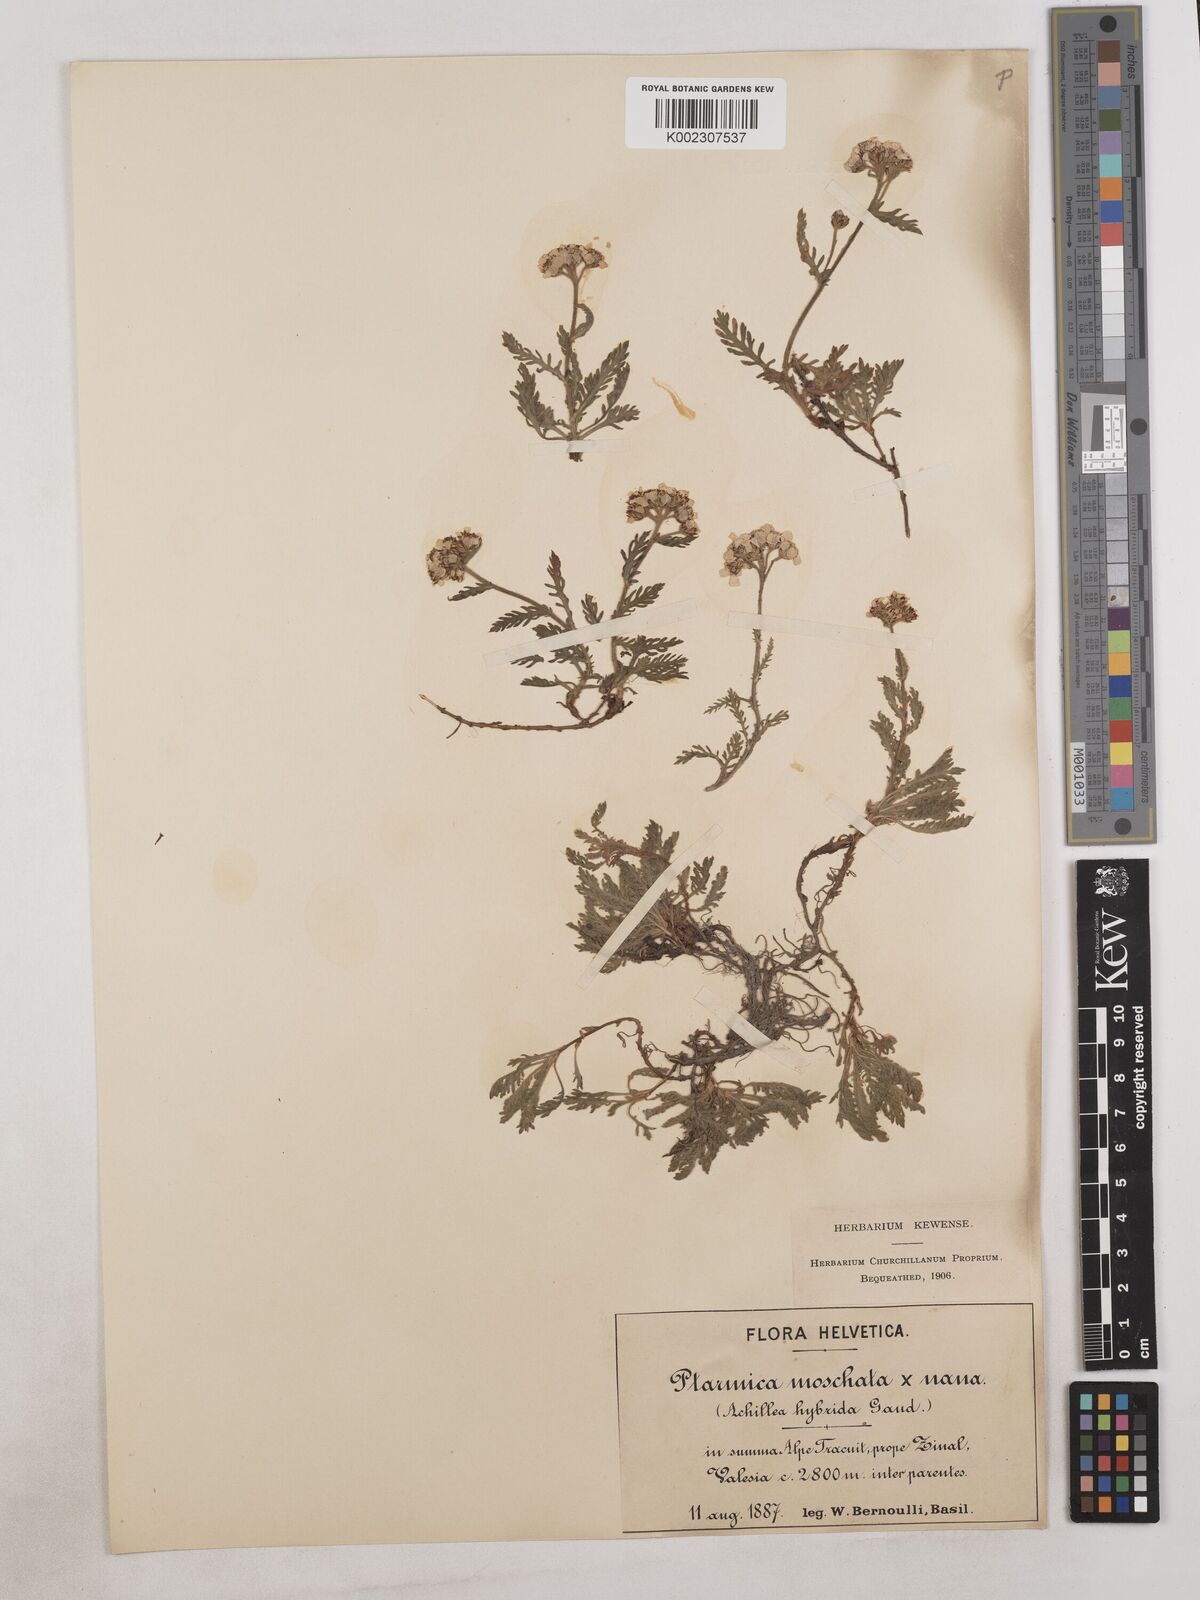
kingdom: Plantae
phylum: Tracheophyta
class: Magnoliopsida
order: Asterales
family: Asteraceae
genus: Achillea
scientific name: Achillea erba-rotta
